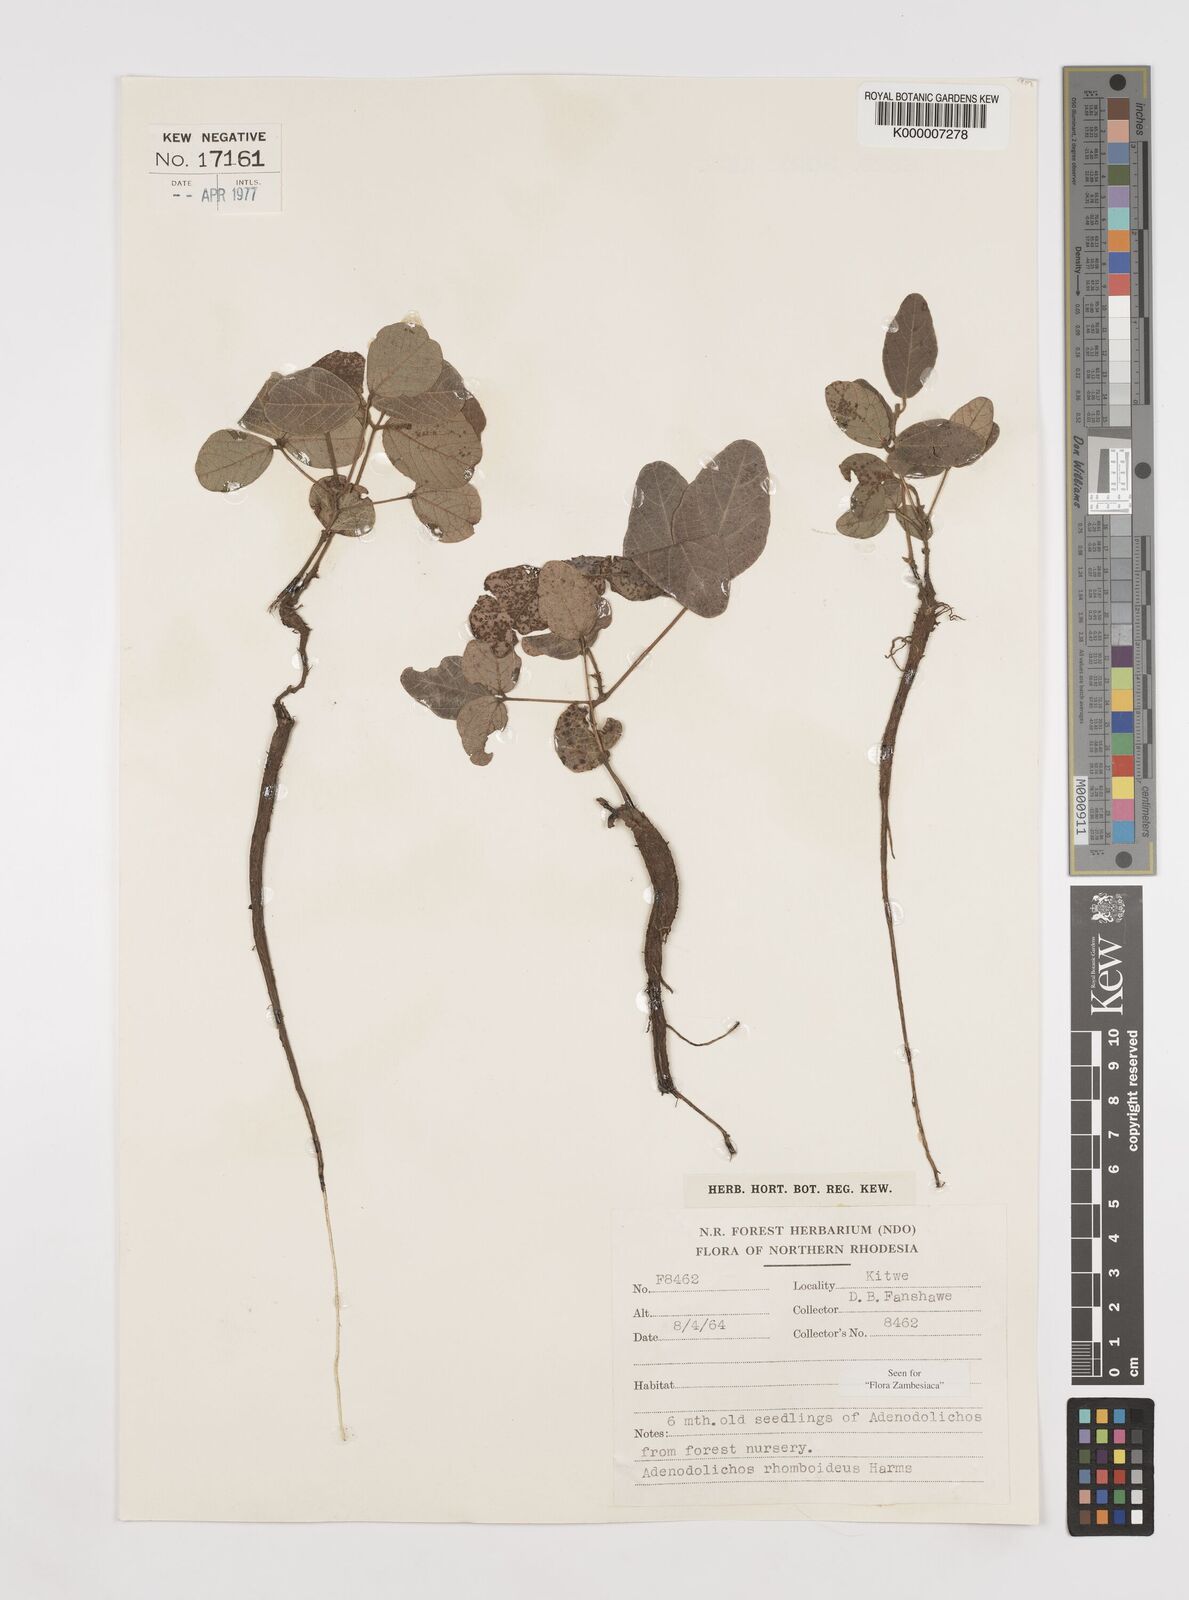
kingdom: Plantae
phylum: Tracheophyta
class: Magnoliopsida
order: Fabales
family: Fabaceae
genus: Adenodolichos
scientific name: Adenodolichos rhomboideus
